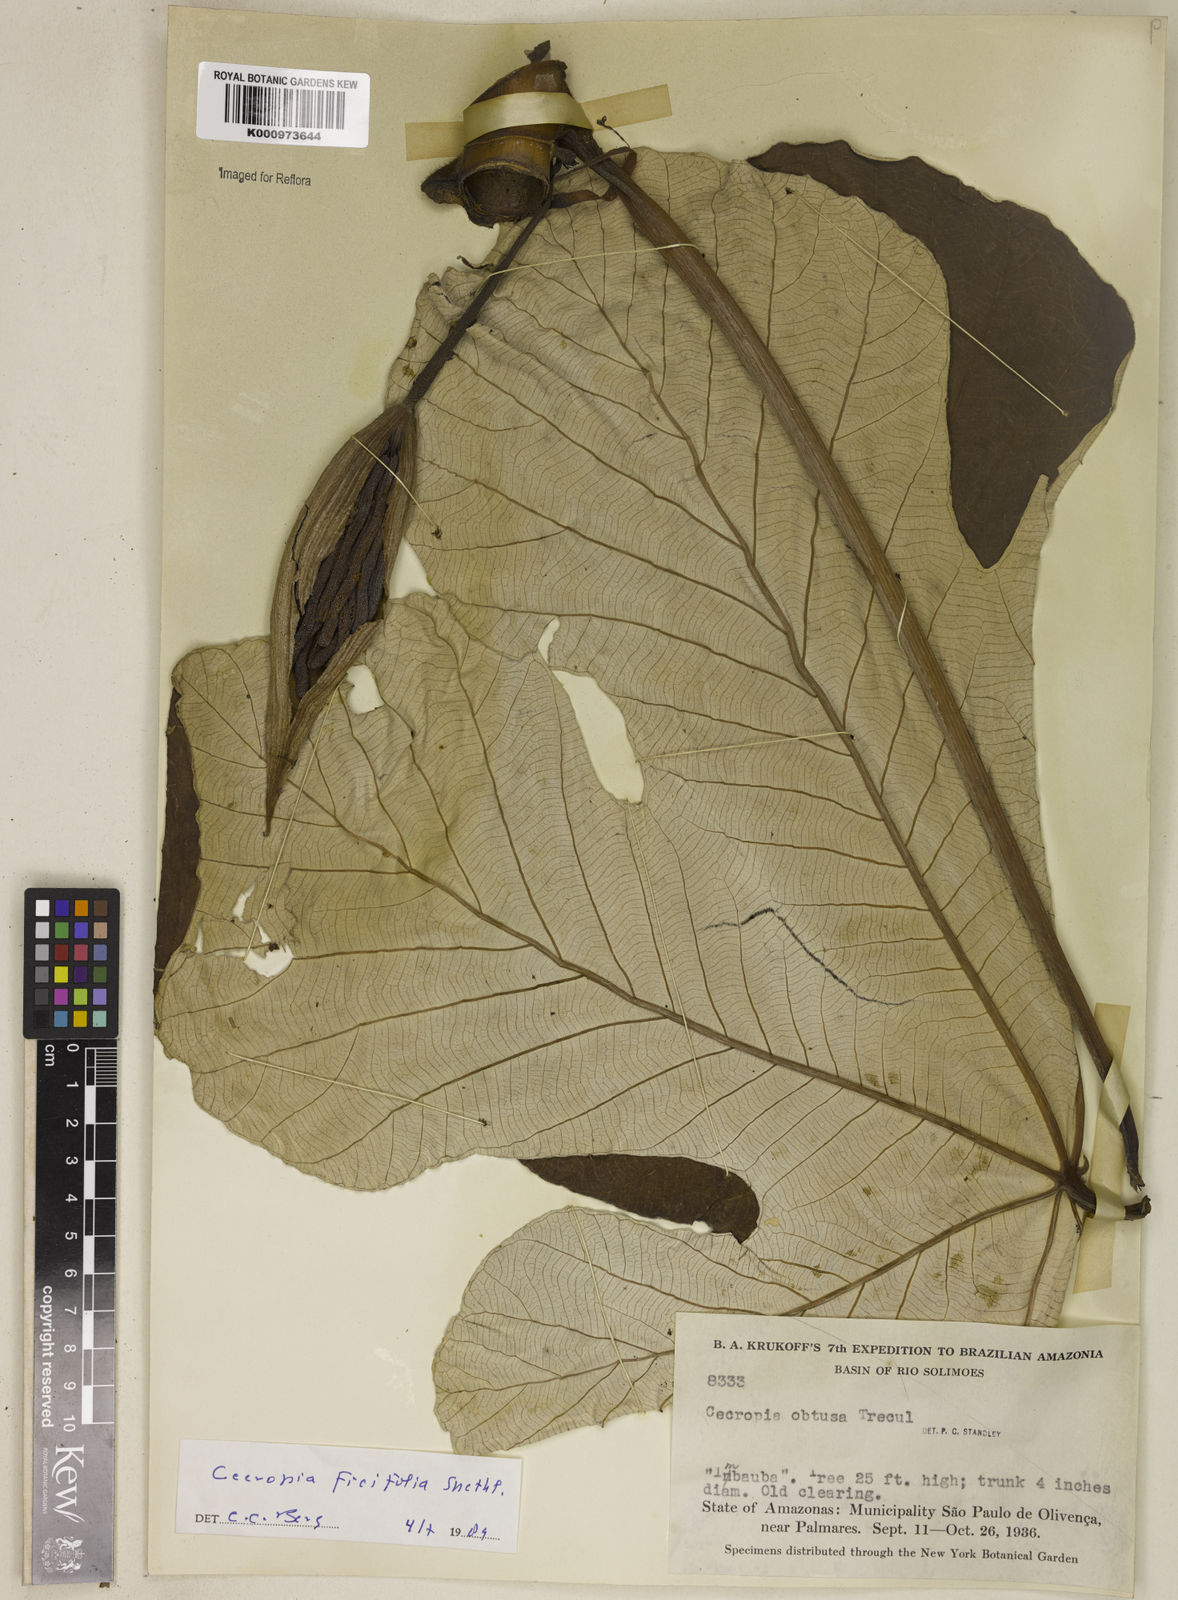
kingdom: Plantae
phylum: Tracheophyta
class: Magnoliopsida
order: Rosales
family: Urticaceae
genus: Cecropia
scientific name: Cecropia ficifolia
